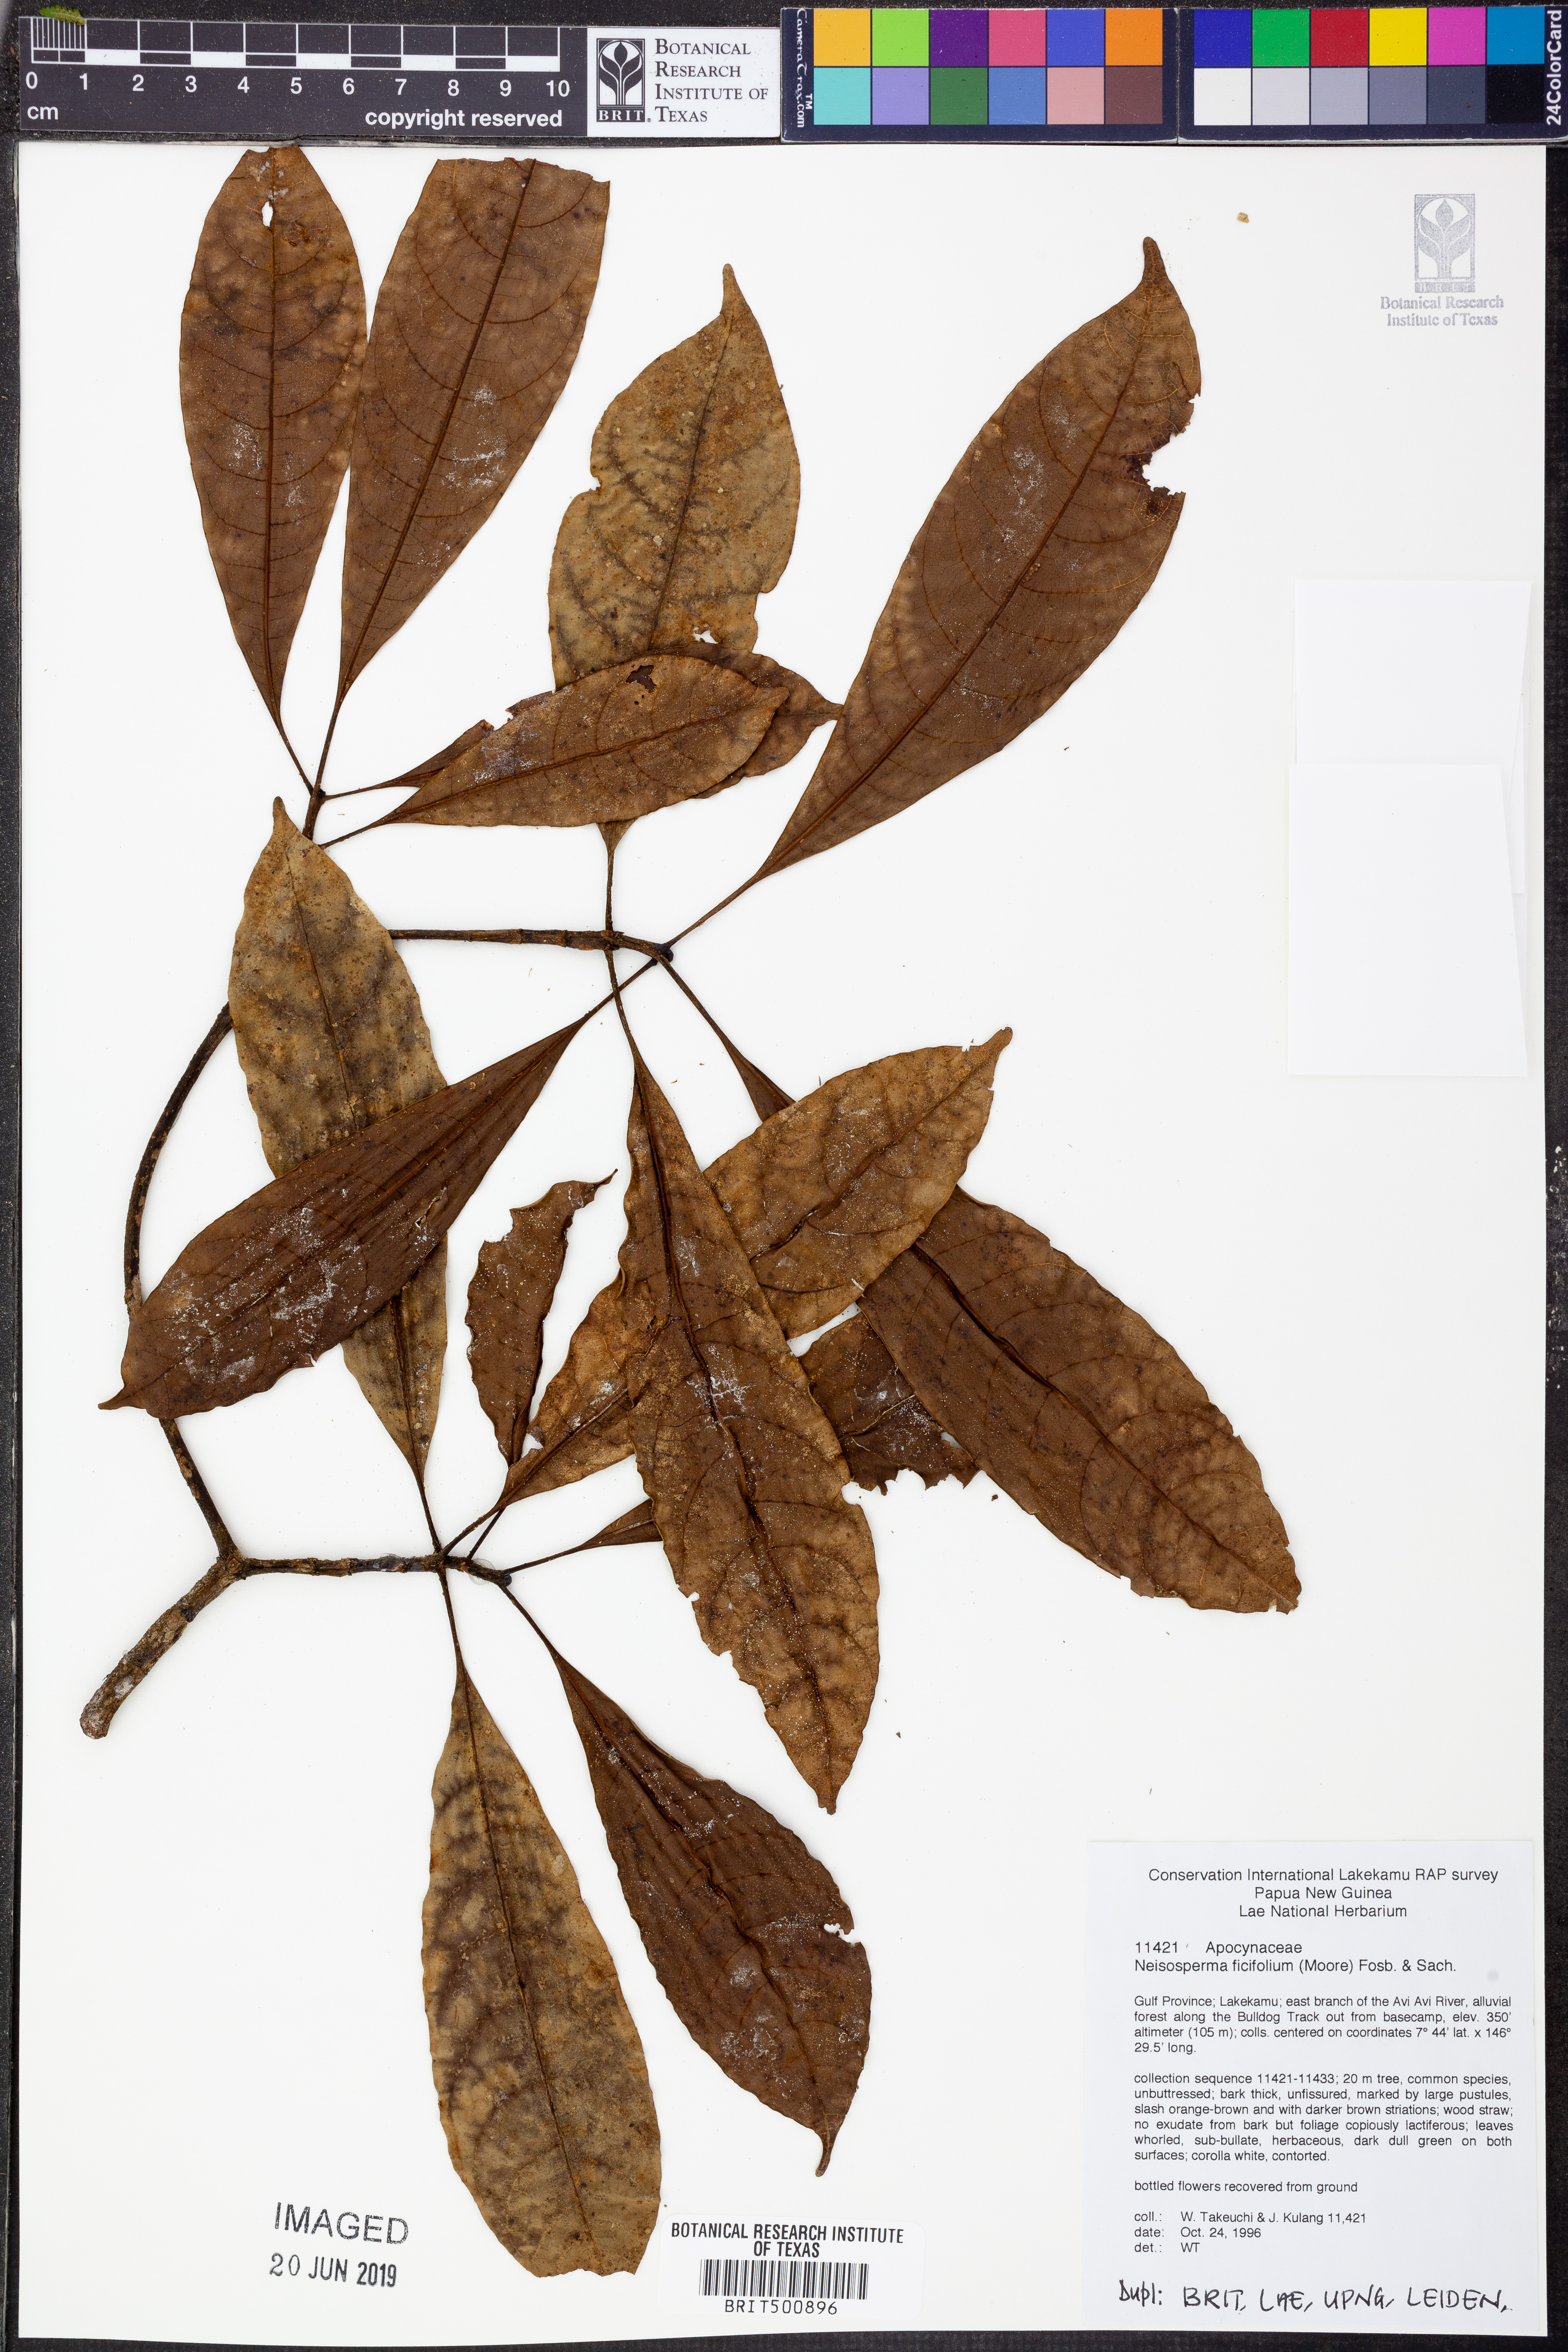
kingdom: Plantae
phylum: Tracheophyta
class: Magnoliopsida
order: Gentianales
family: Apocynaceae
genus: Ochrosia
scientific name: Ochrosia ficifolia
